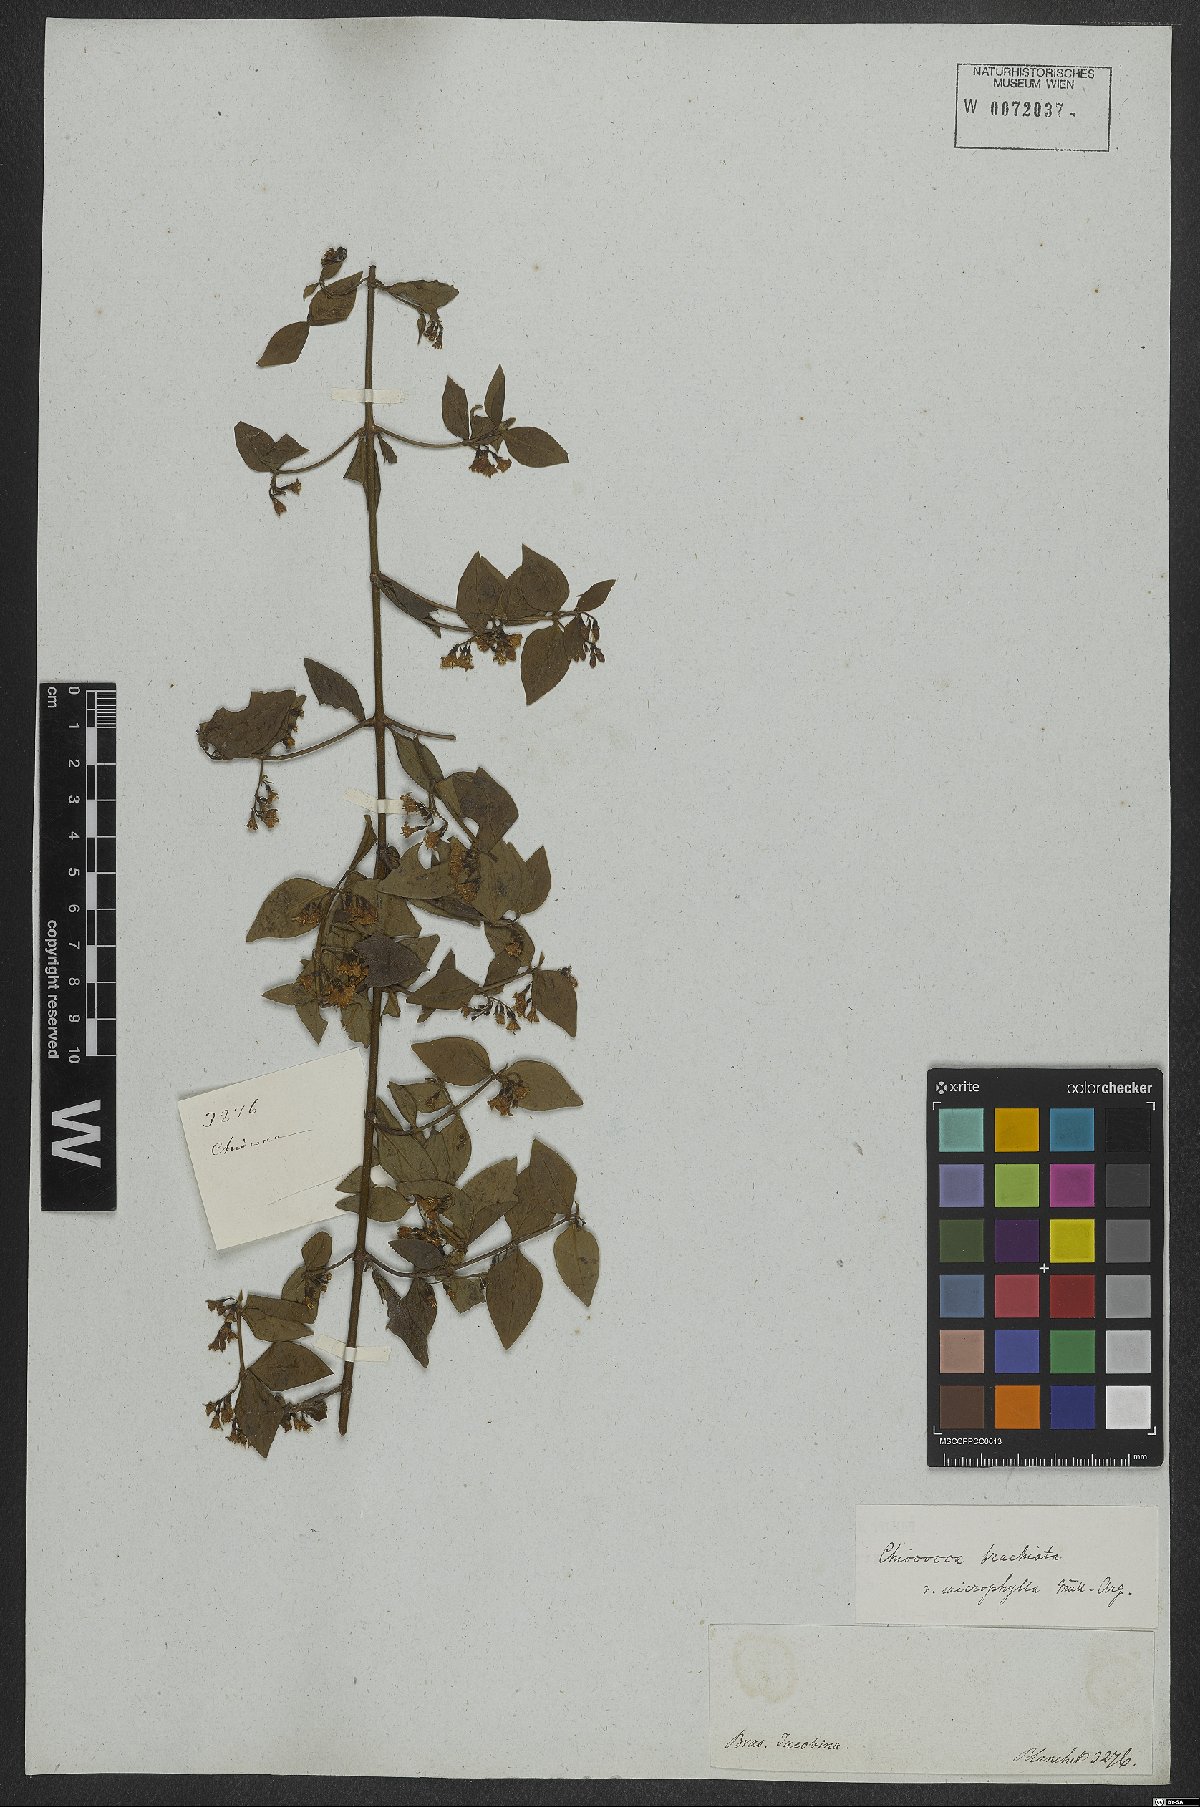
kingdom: Plantae
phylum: Tracheophyta
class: Magnoliopsida
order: Gentianales
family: Rubiaceae
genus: Chiococca
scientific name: Chiococca alba
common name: Snowberry
